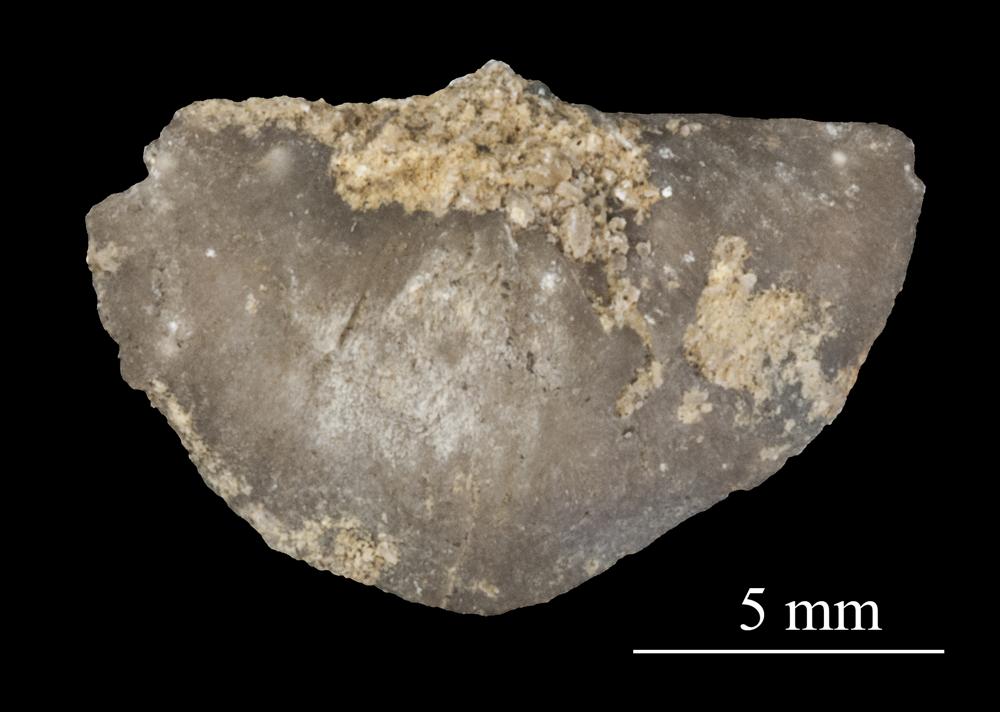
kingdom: Animalia
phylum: Brachiopoda
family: Sowerbyellidae
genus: Sowerbyella
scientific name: Sowerbyella
